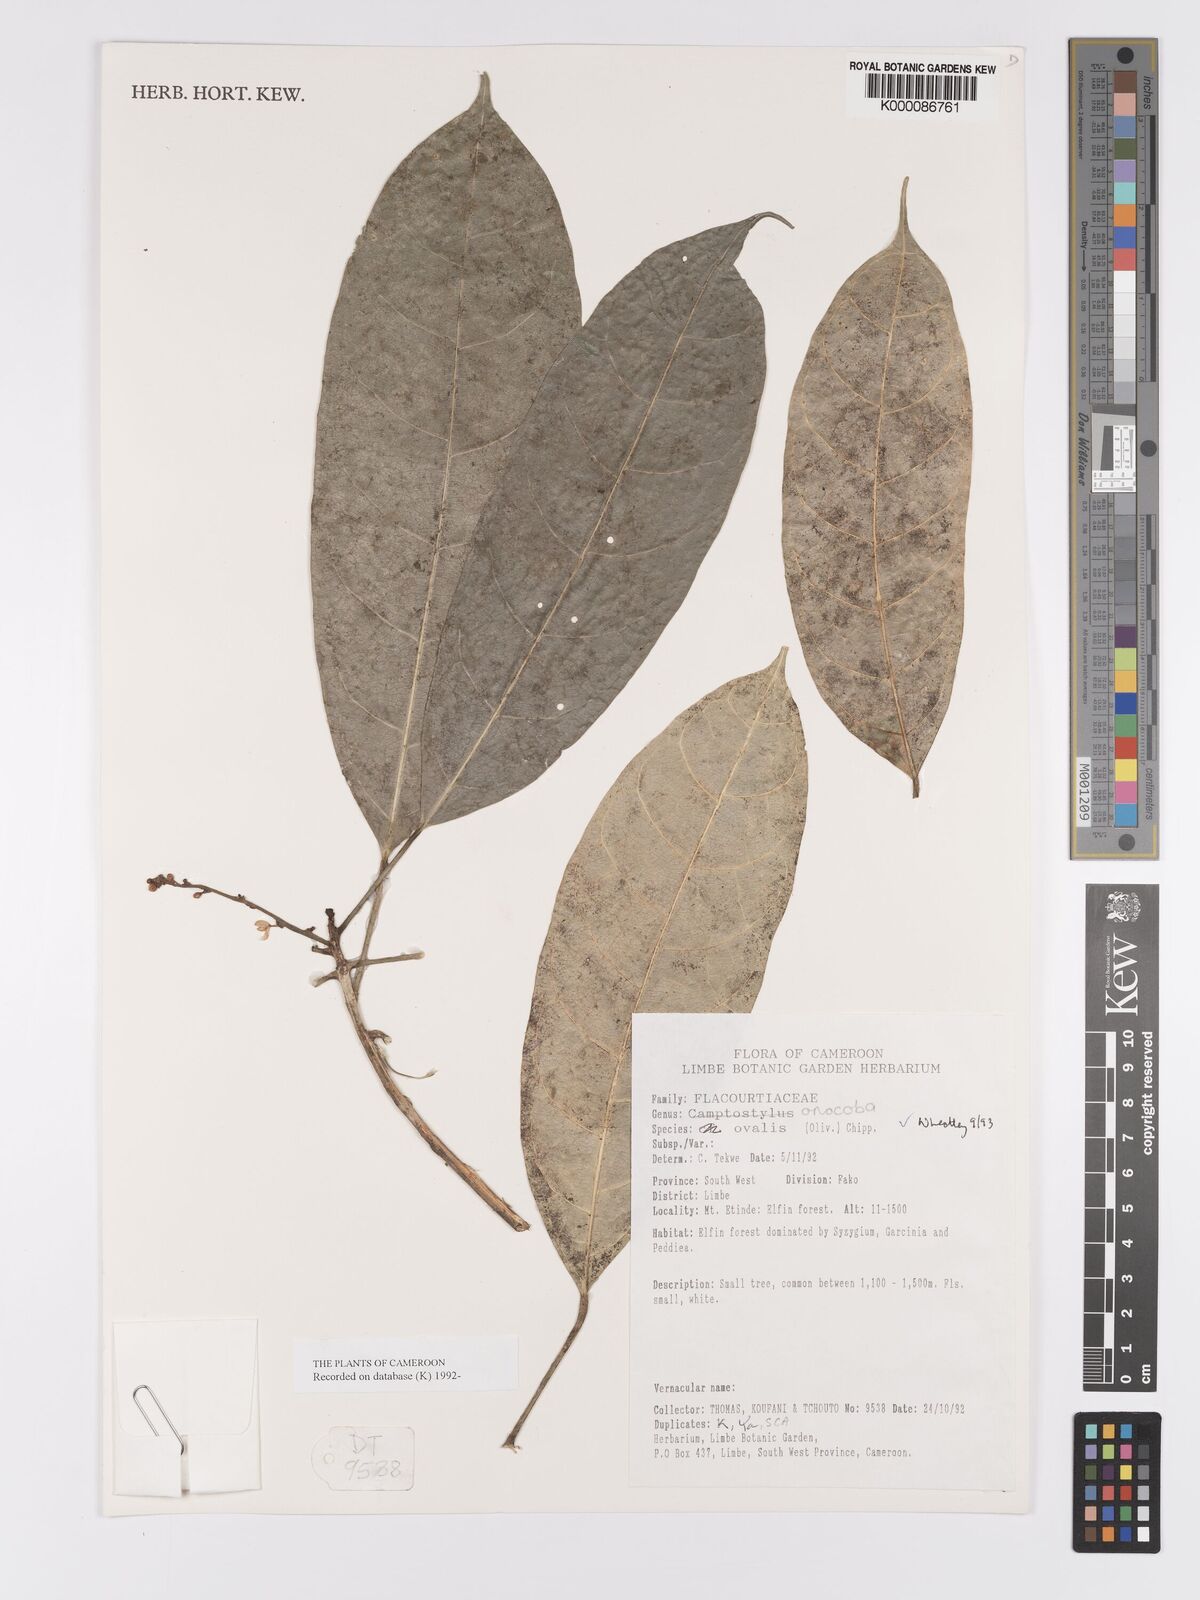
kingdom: Plantae
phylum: Tracheophyta
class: Magnoliopsida
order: Malpighiales
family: Achariaceae
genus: Camptostylus
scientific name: Camptostylus ovalis
